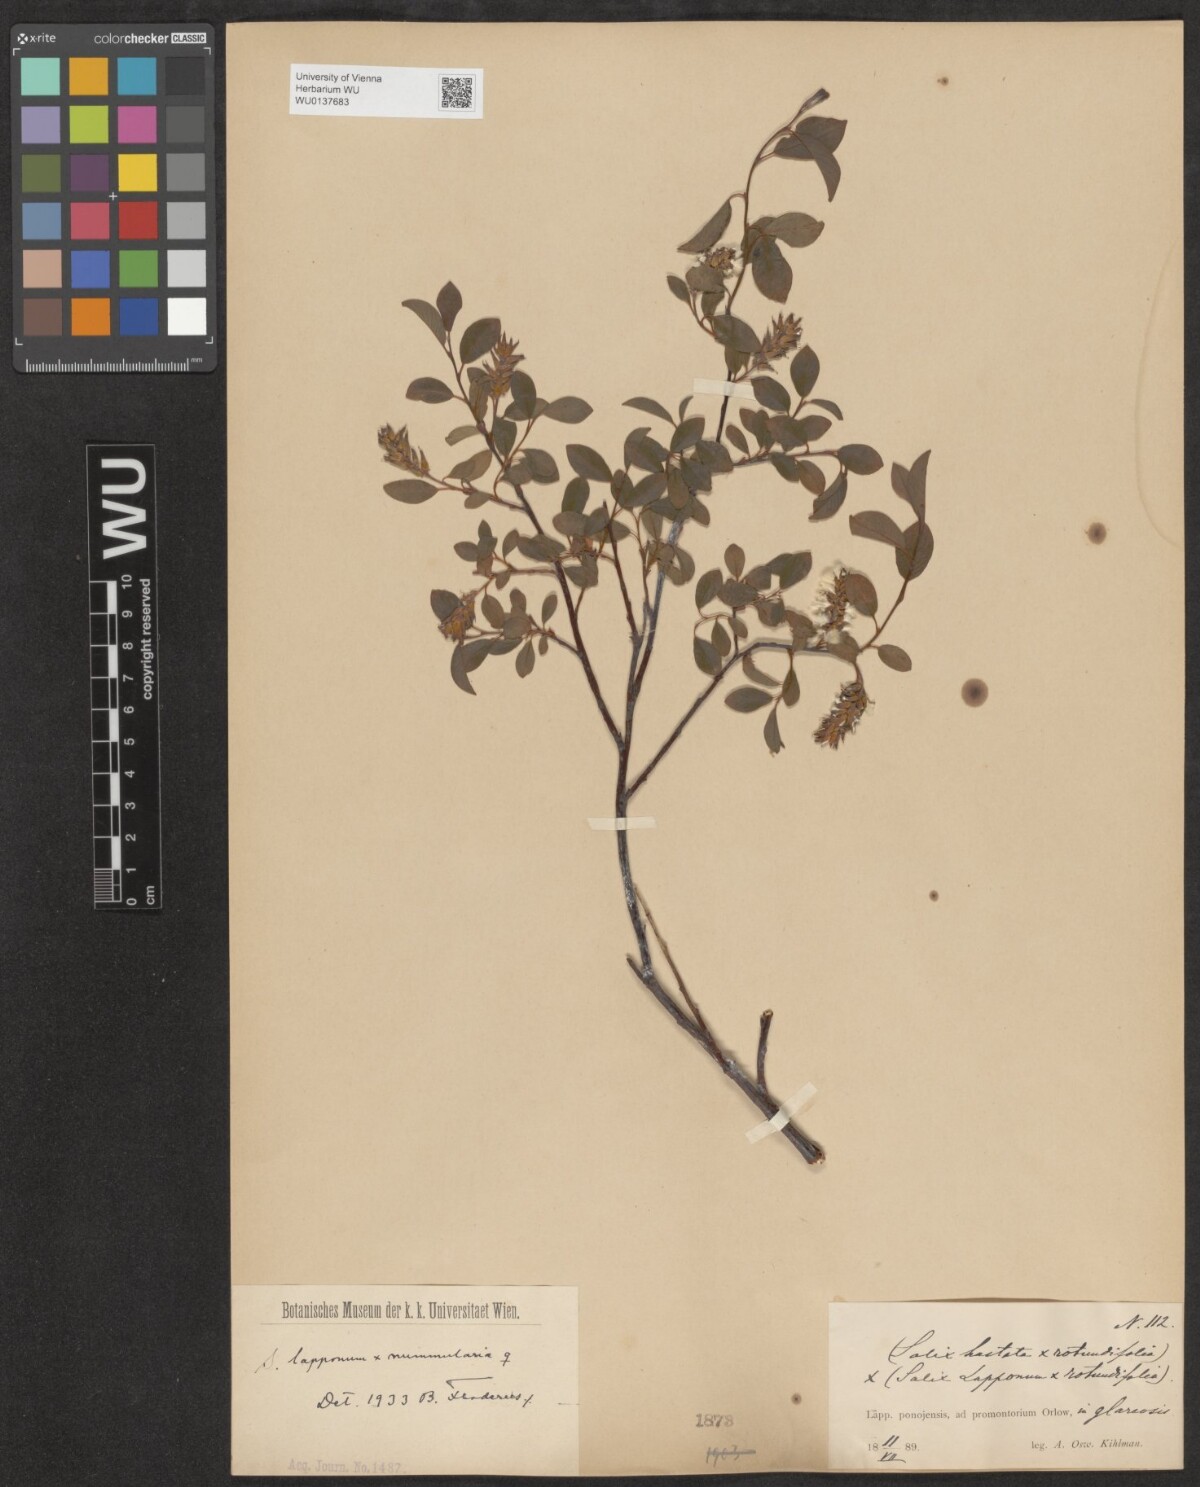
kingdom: Plantae
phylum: Tracheophyta
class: Magnoliopsida
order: Malpighiales
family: Salicaceae
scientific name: Salicaceae
